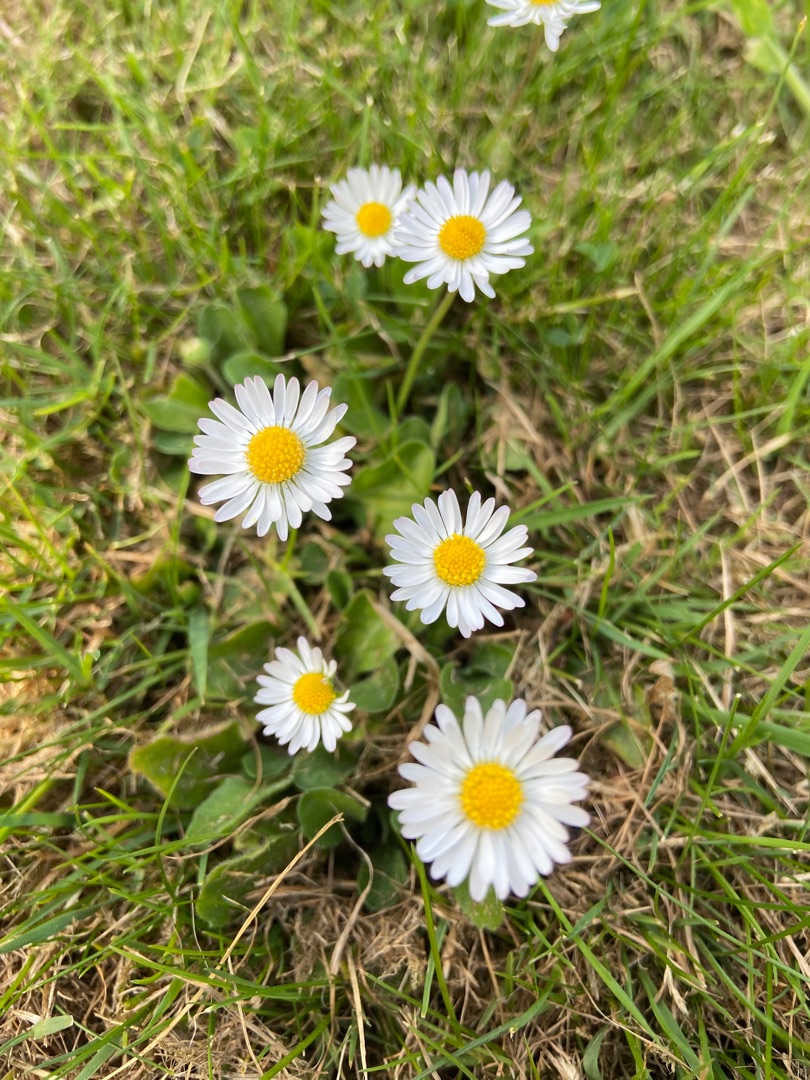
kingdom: Plantae
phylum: Tracheophyta
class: Magnoliopsida
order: Asterales
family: Asteraceae
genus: Bellis
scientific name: Bellis perennis
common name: Tusindfryd
